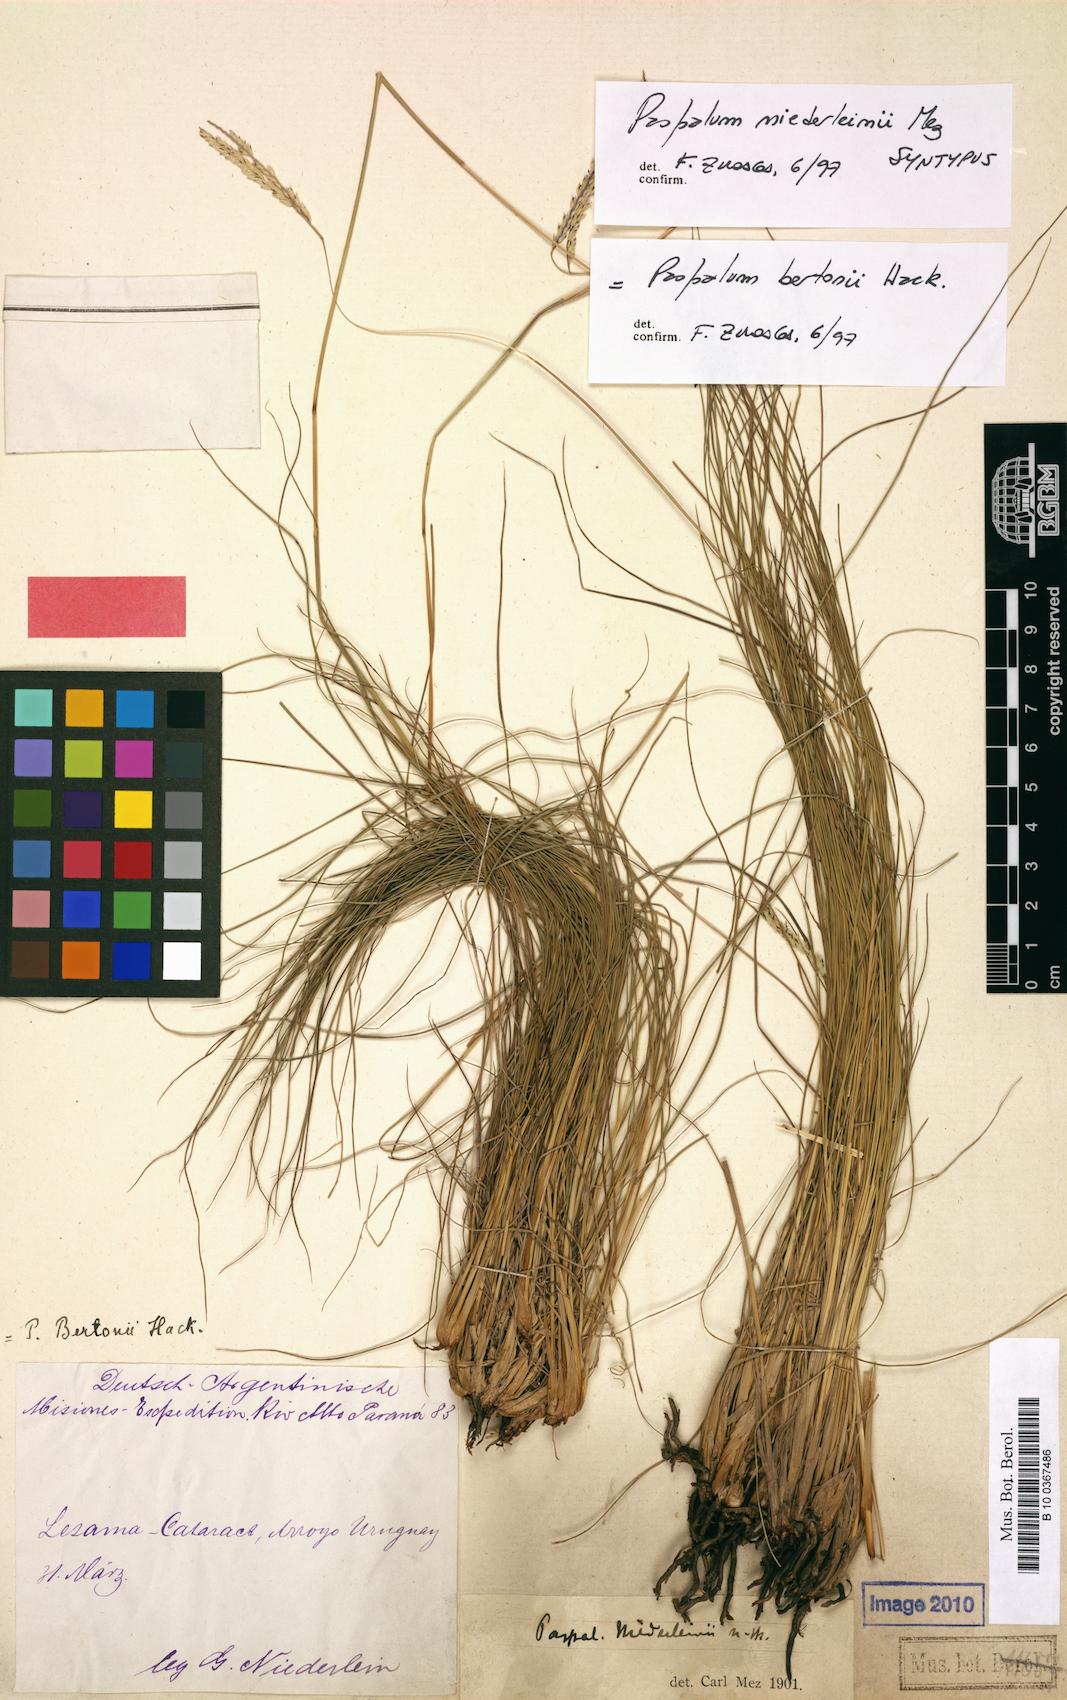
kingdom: Plantae
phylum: Tracheophyta
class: Liliopsida
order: Poales
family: Poaceae
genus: Paspalum
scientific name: Paspalum bertonii
